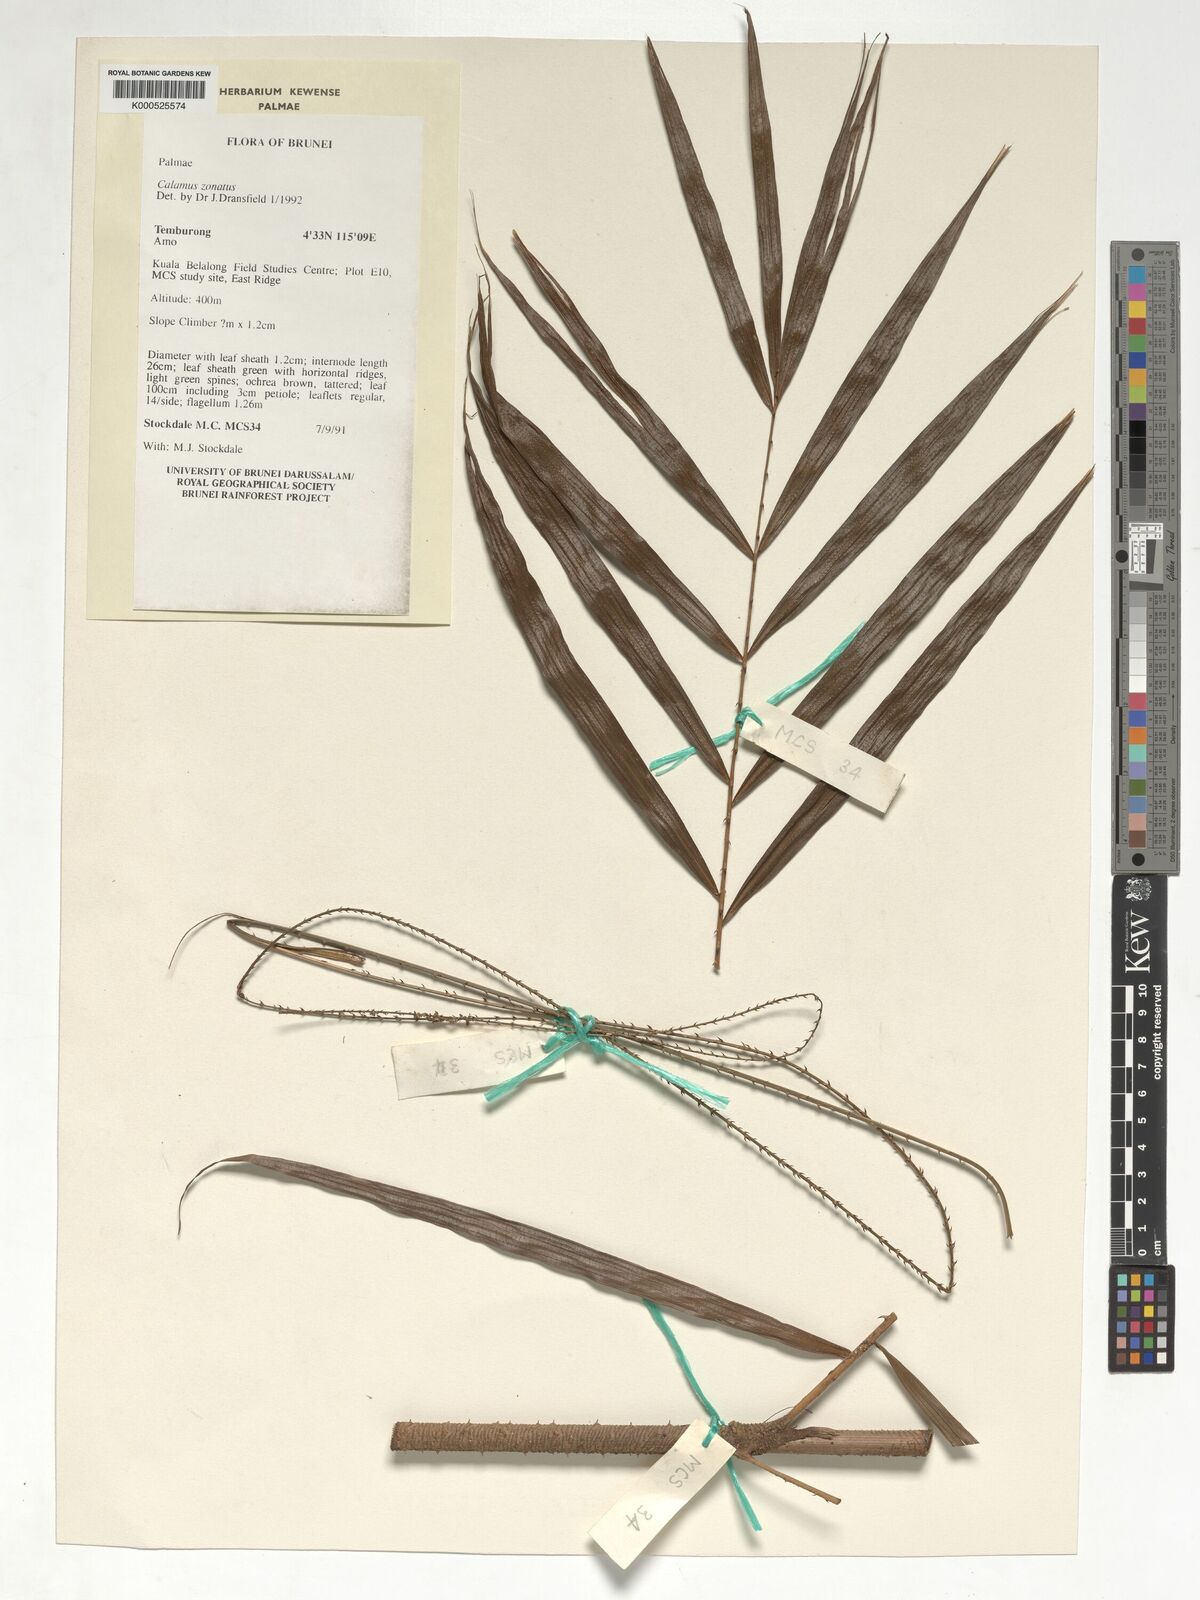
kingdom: Plantae
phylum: Tracheophyta
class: Liliopsida
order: Arecales
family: Arecaceae
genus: Calamus
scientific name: Calamus zonatus
